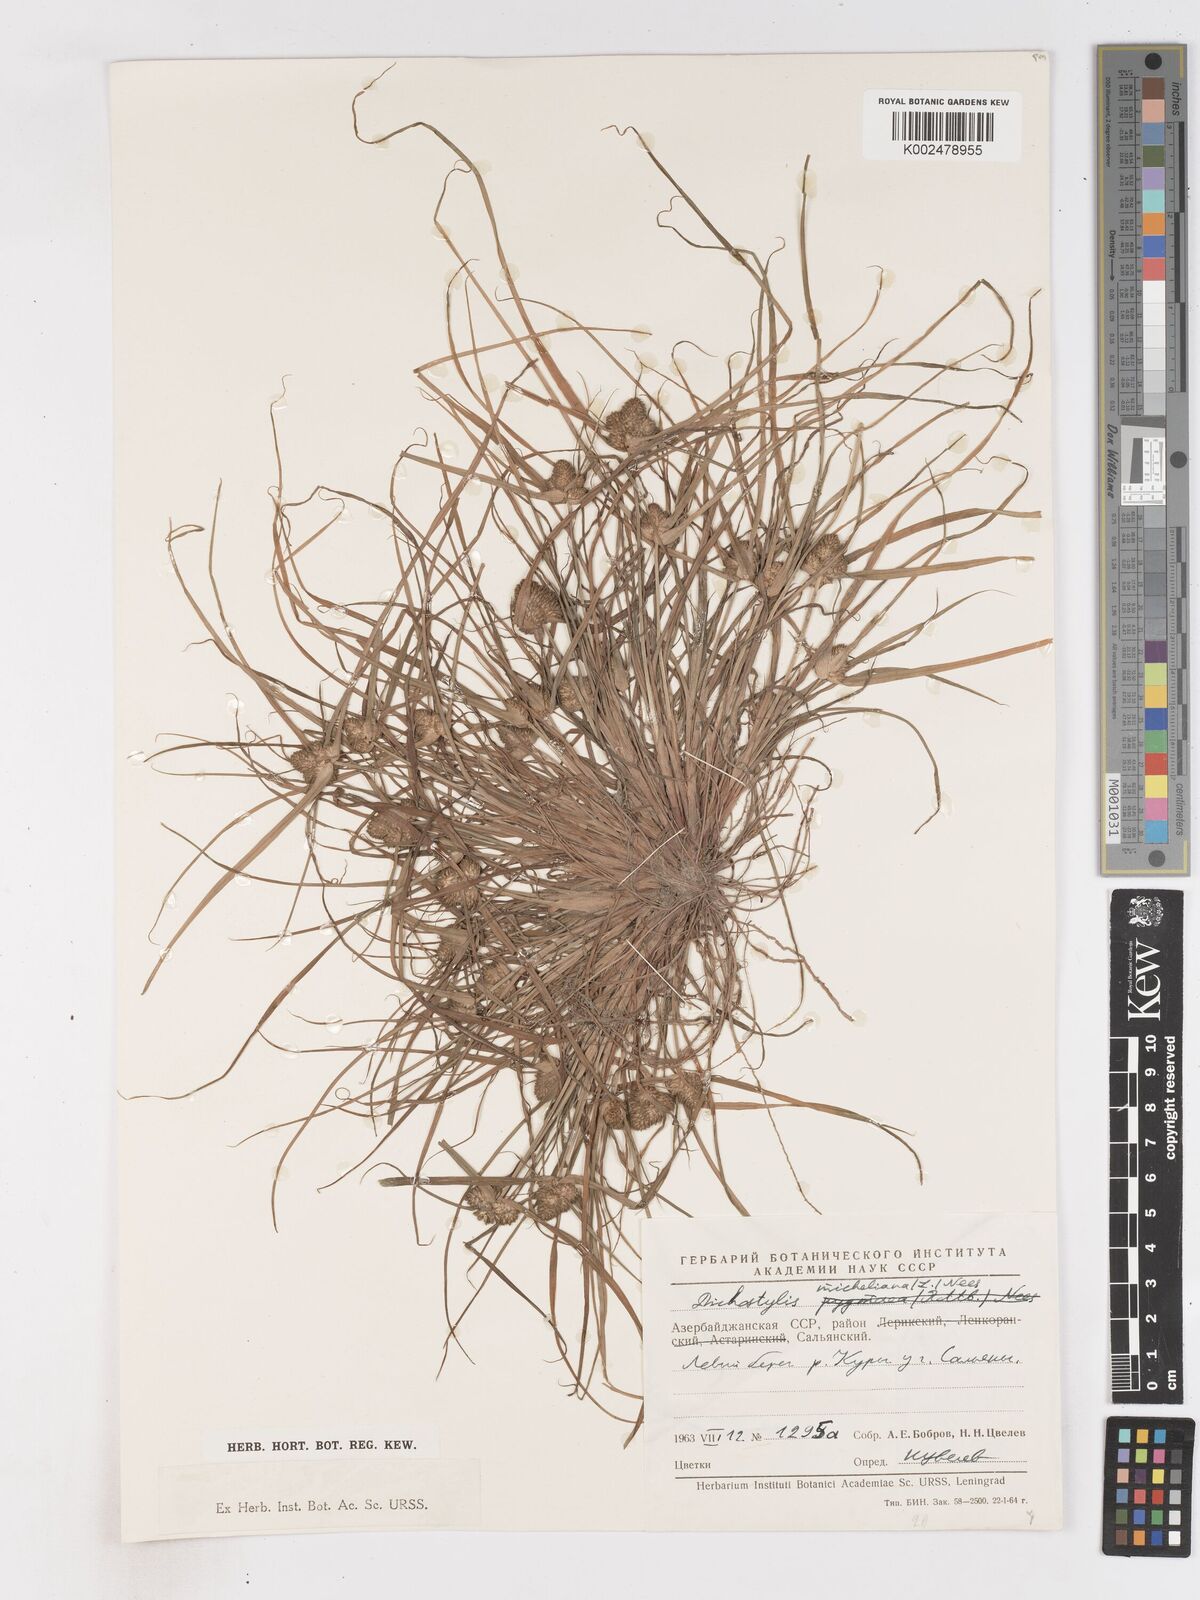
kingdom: Plantae
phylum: Tracheophyta
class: Liliopsida
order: Poales
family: Cyperaceae
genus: Cyperus
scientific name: Cyperus michelianus
